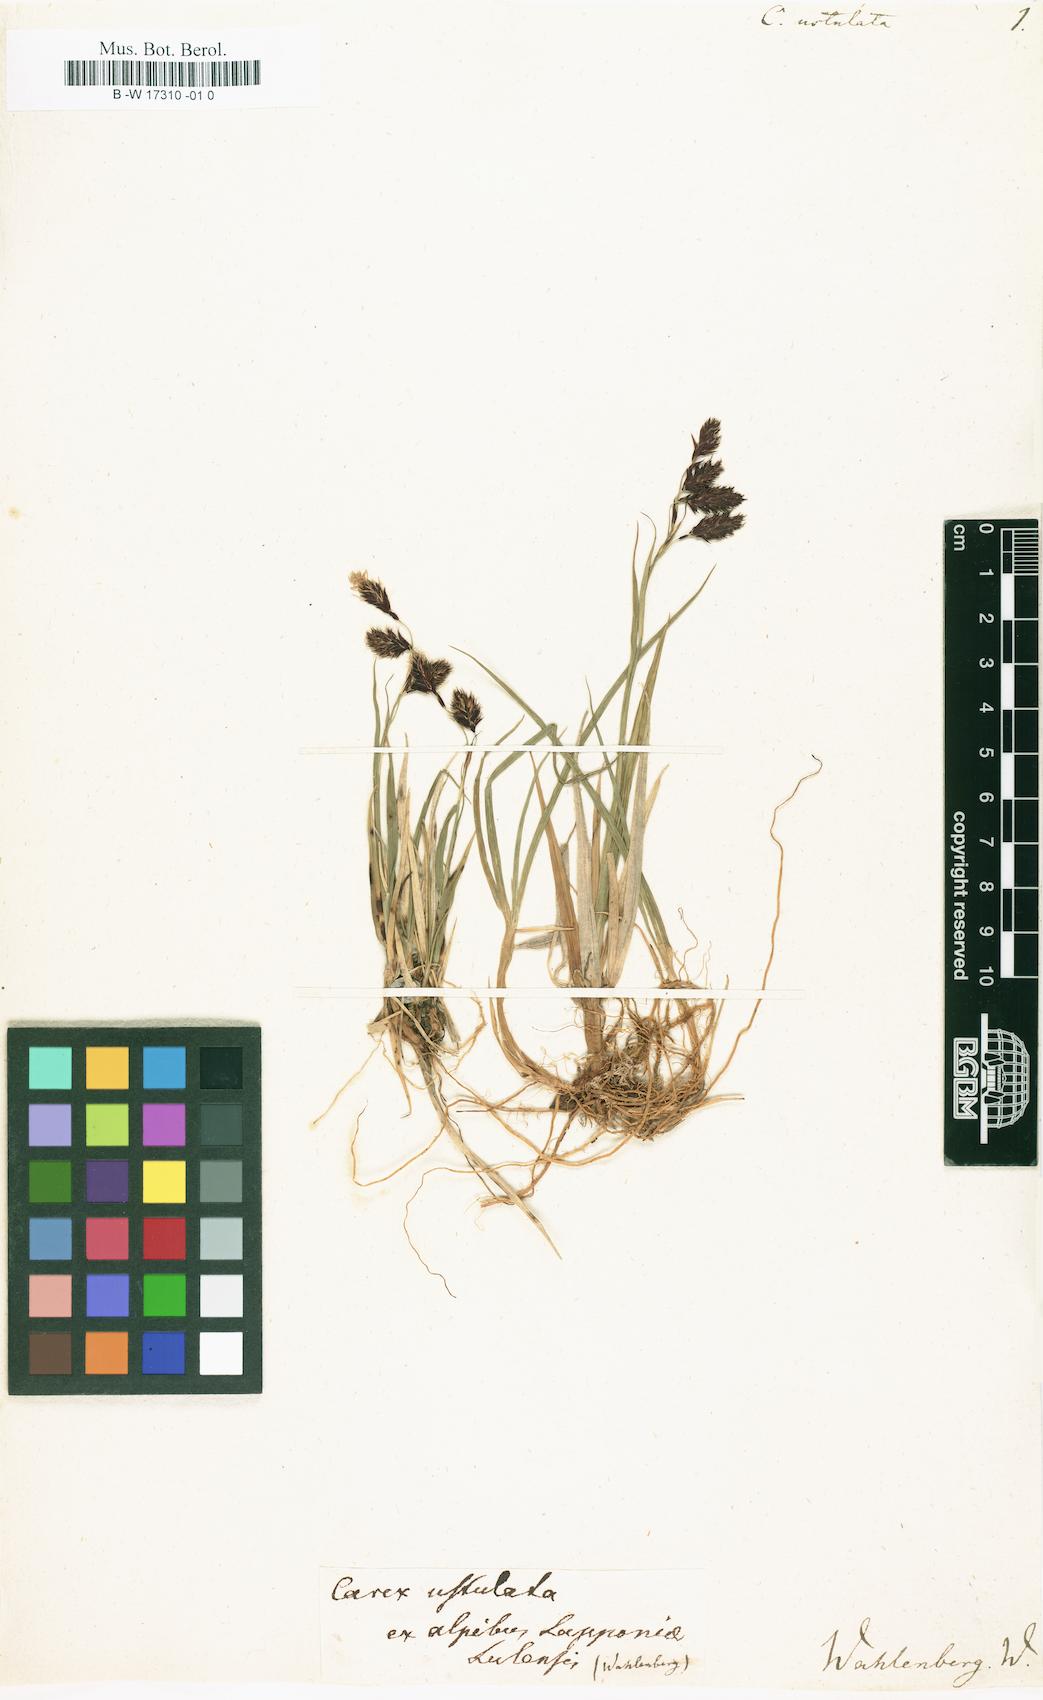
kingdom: Plantae
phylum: Tracheophyta
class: Liliopsida
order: Poales
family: Cyperaceae
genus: Carex
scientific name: Carex atrofusca
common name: Scorched alpine-sedge
